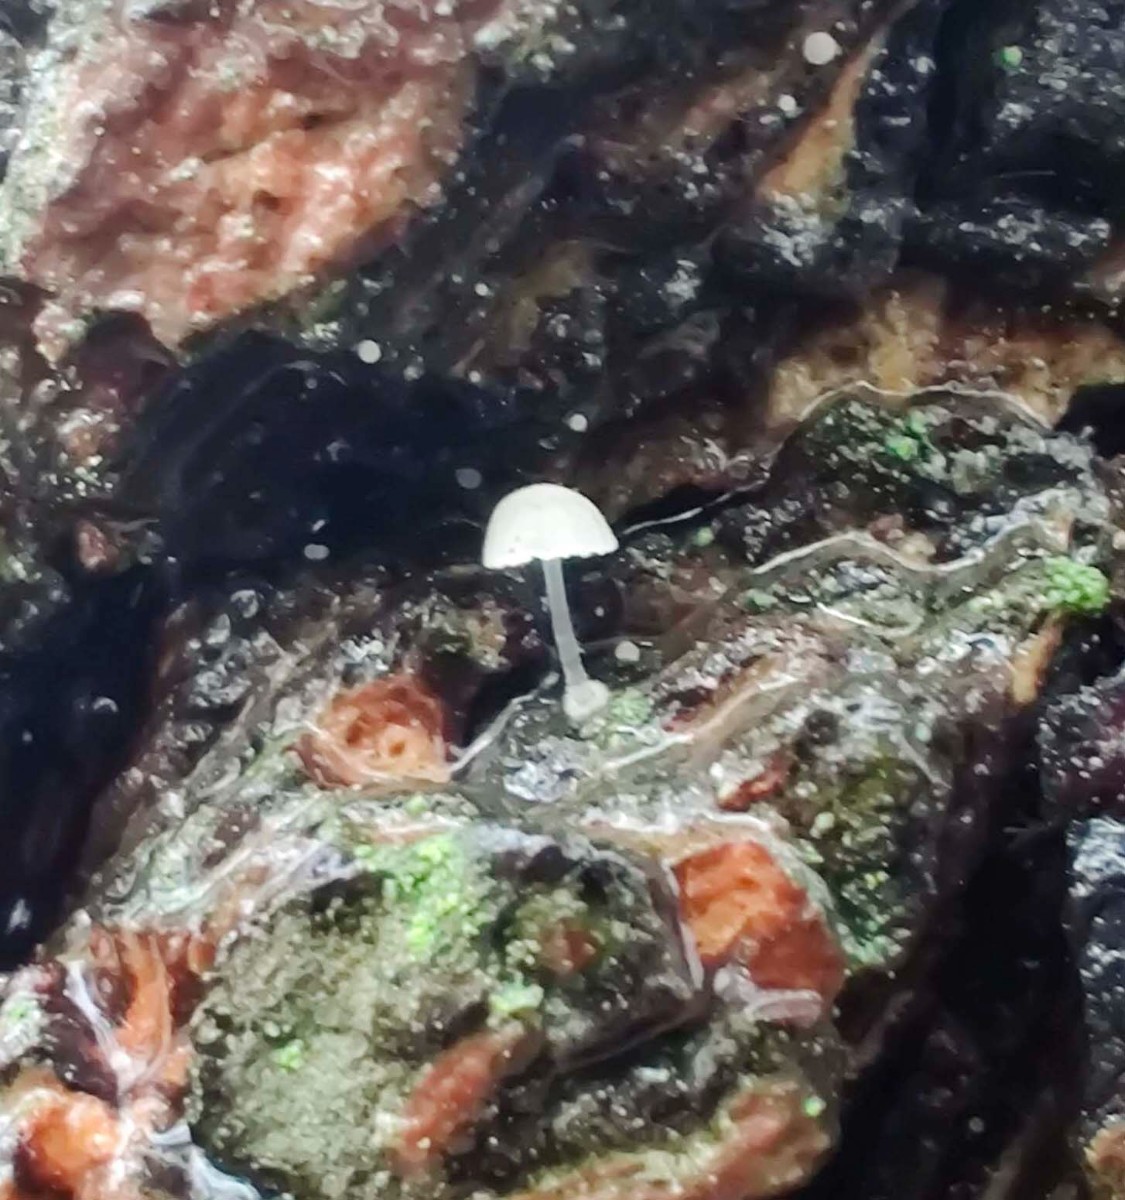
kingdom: Fungi
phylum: Basidiomycota
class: Agaricomycetes
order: Agaricales
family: Mycenaceae
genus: Mycena
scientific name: Mycena
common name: huesvamp
